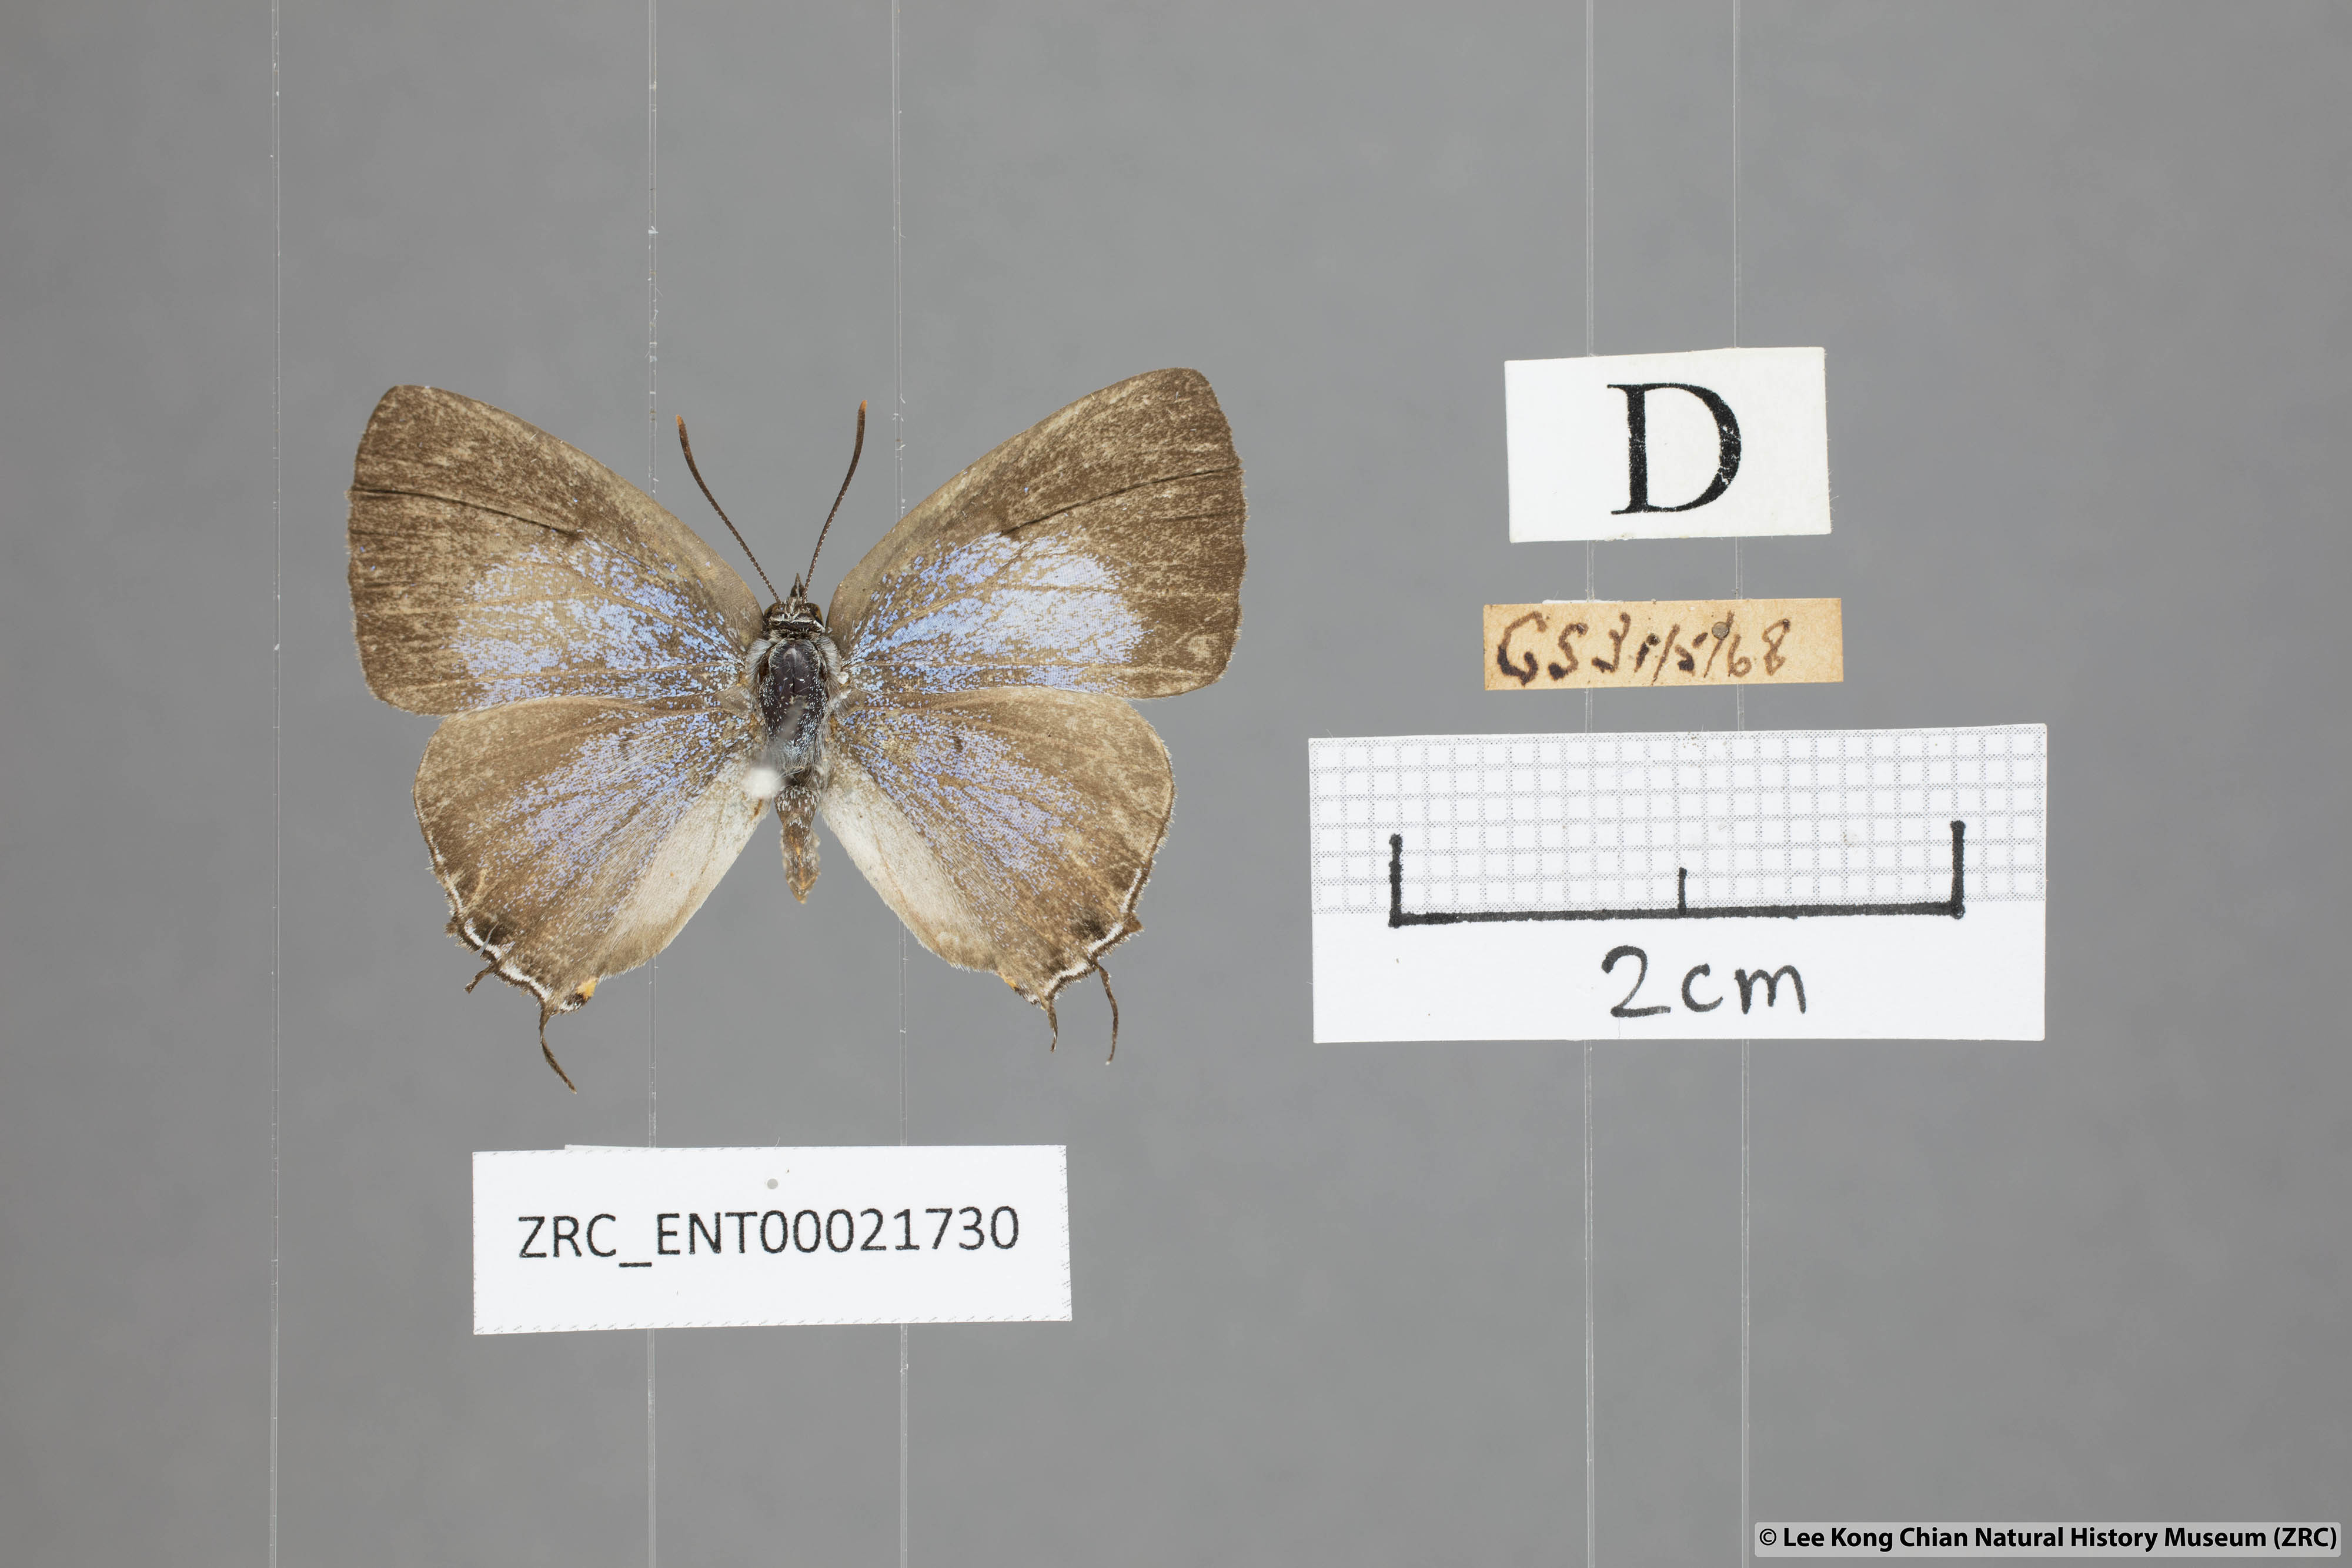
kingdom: Animalia
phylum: Arthropoda
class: Insecta
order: Lepidoptera
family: Lycaenidae
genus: Pratapa
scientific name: Pratapa deva
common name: White royal
